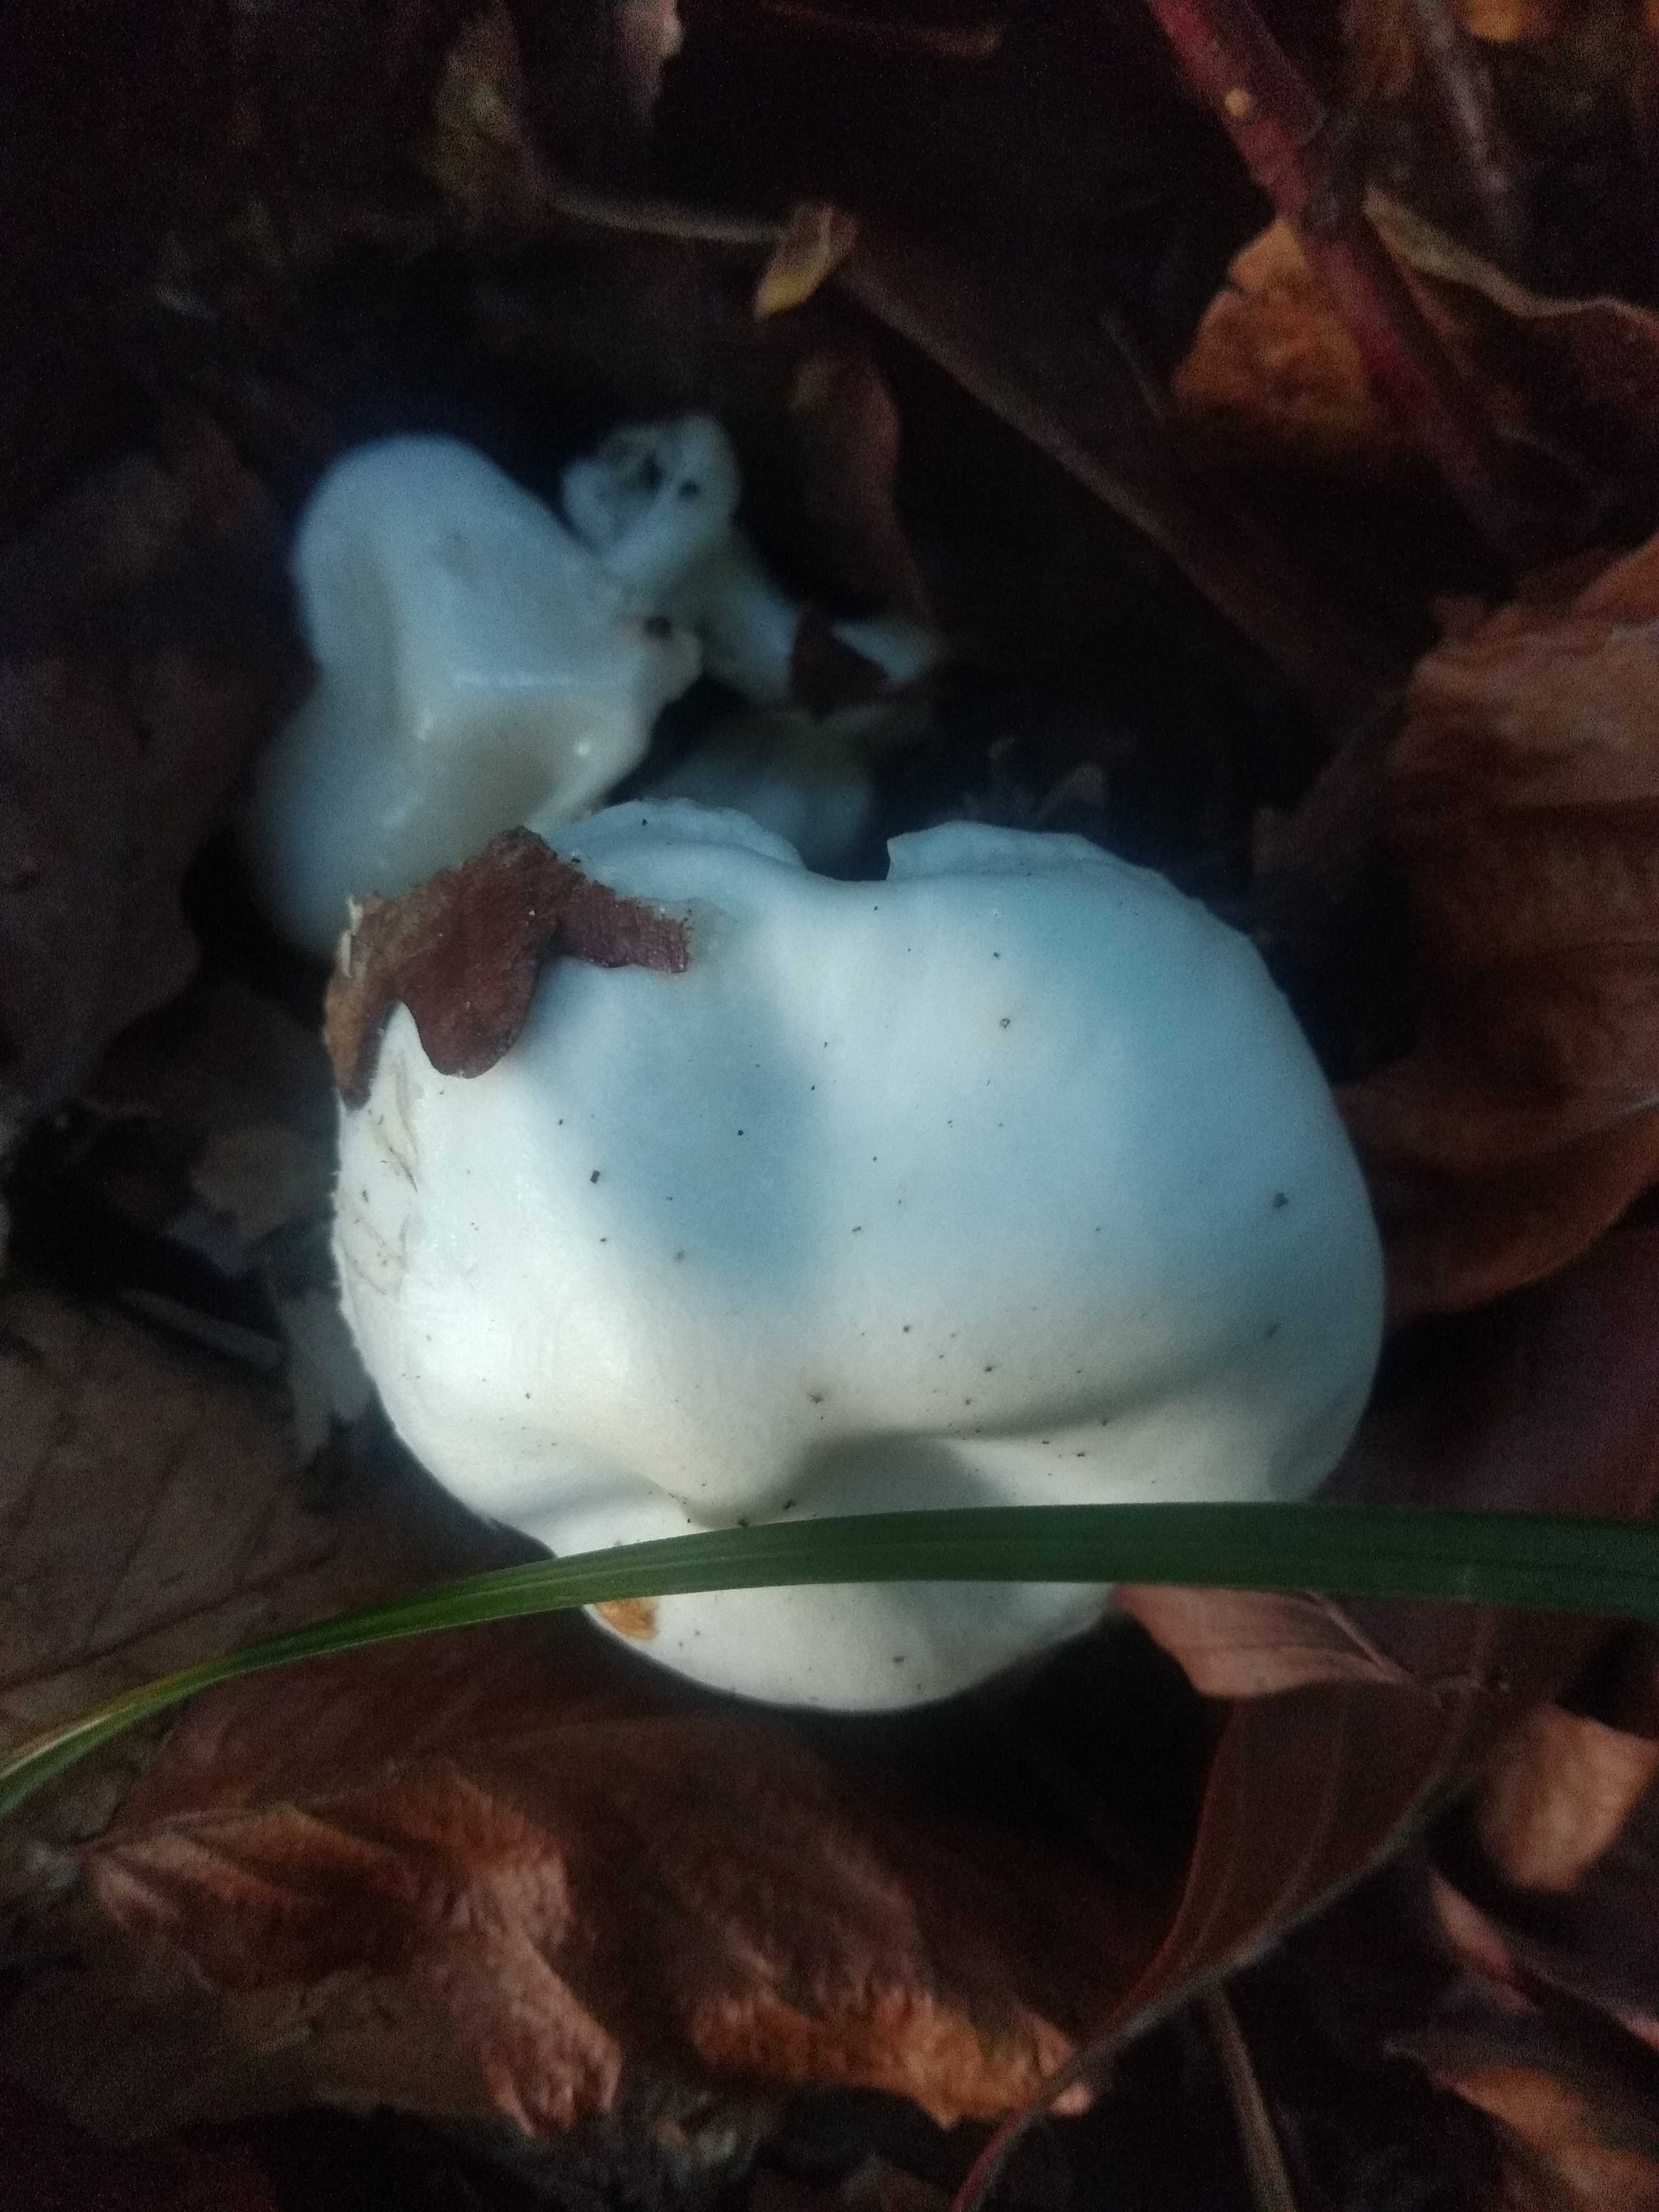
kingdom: Fungi
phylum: Basidiomycota
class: Agaricomycetes
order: Agaricales
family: Hygrophoraceae
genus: Hygrophorus
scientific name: Hygrophorus
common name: sneglehat
